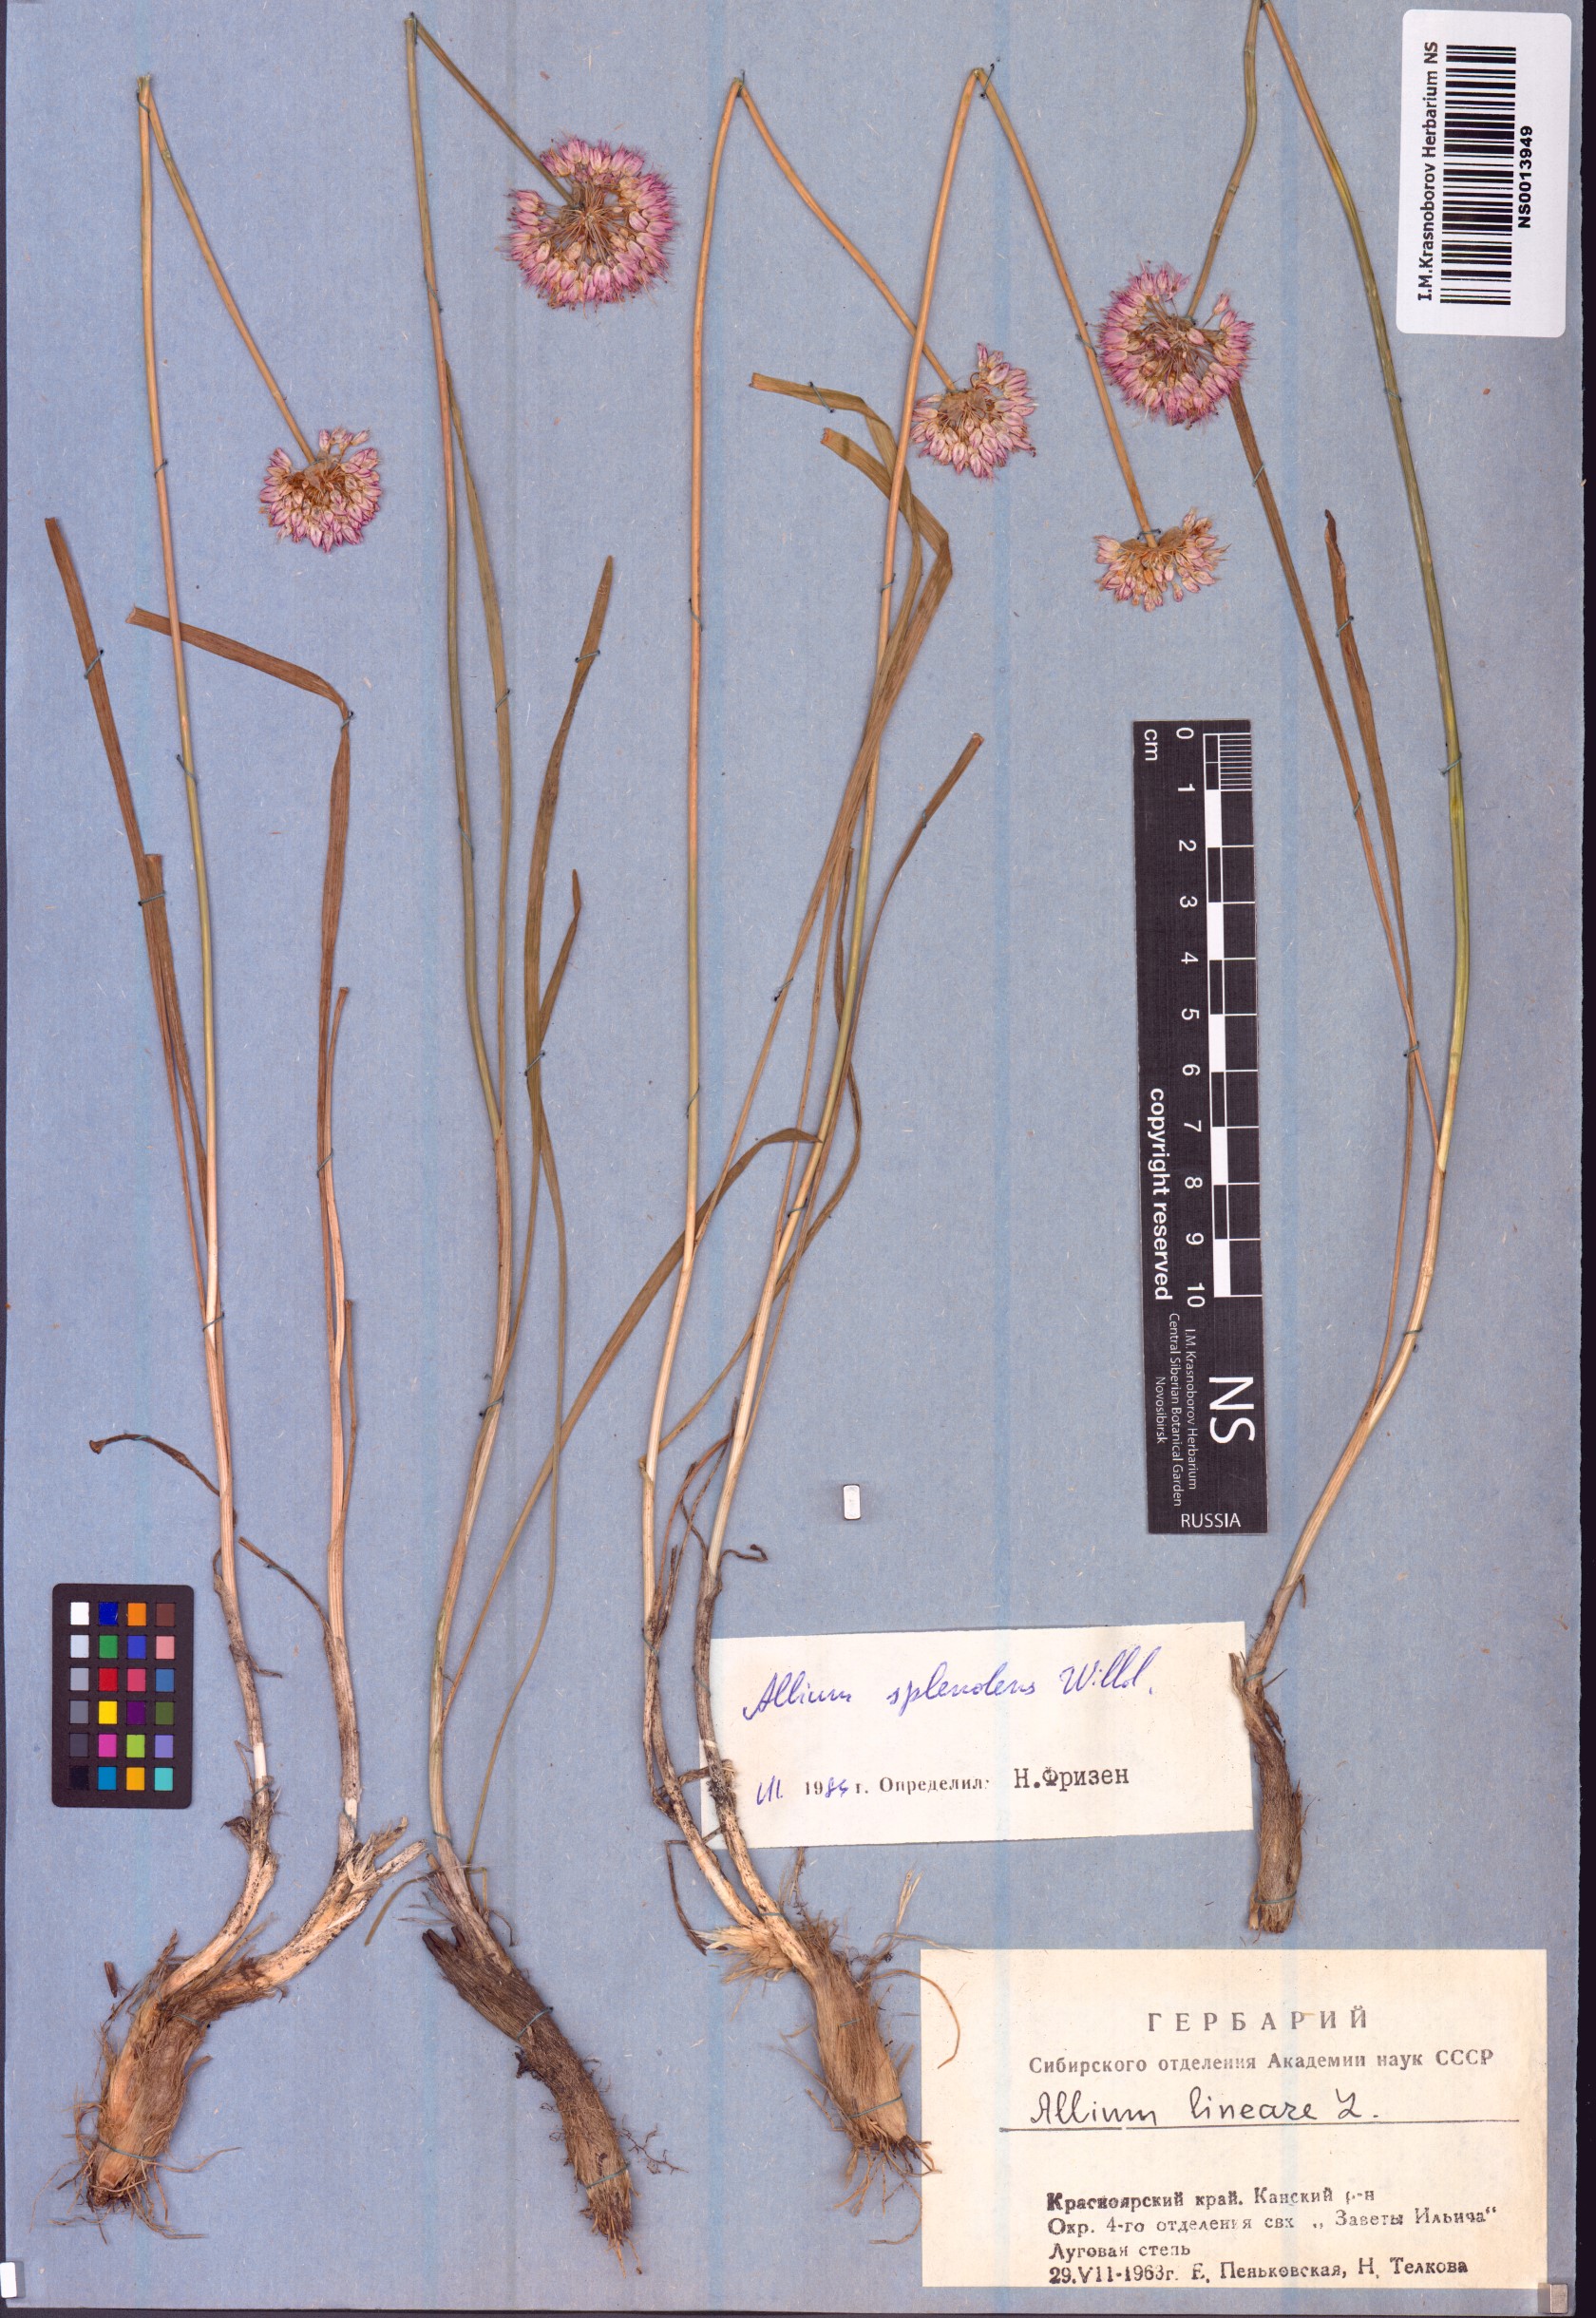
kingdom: Plantae
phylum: Tracheophyta
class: Liliopsida
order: Asparagales
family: Amaryllidaceae
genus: Allium
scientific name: Allium splendens
